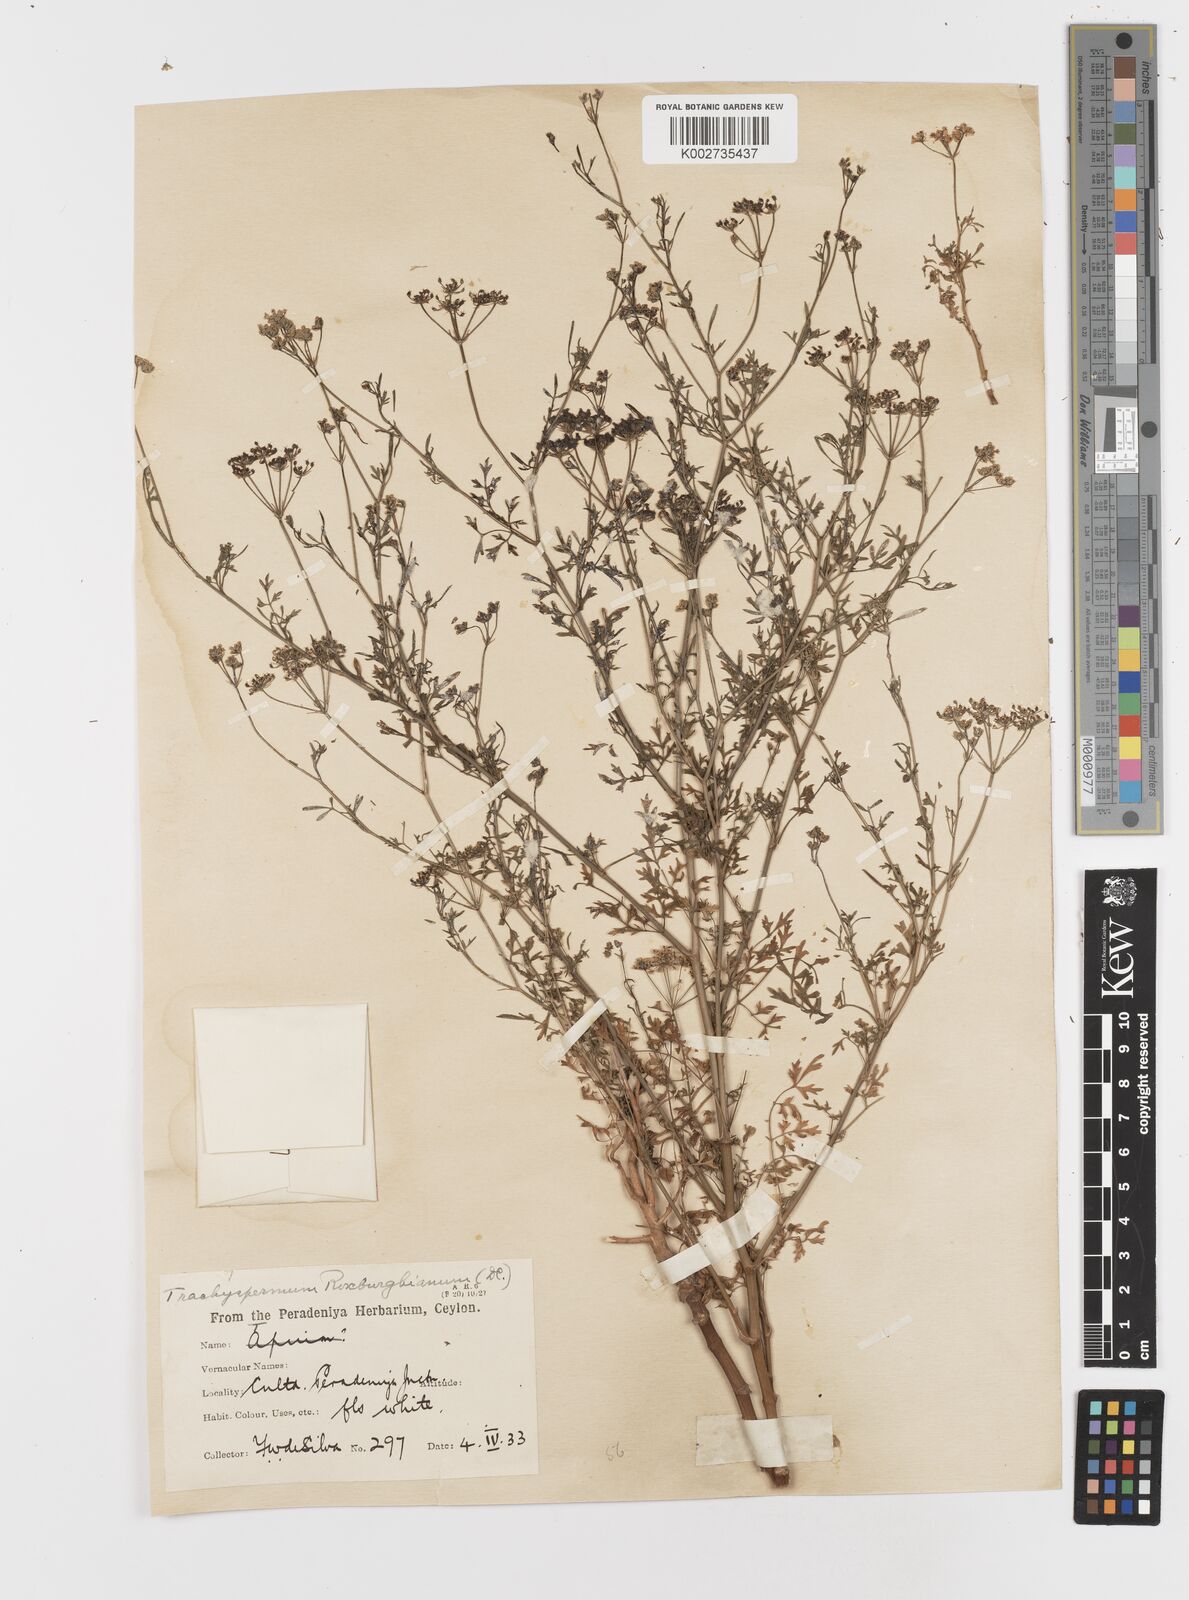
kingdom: Plantae
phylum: Tracheophyta
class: Magnoliopsida
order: Apiales
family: Apiaceae
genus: Psammogeton
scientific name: Psammogeton involucratum
